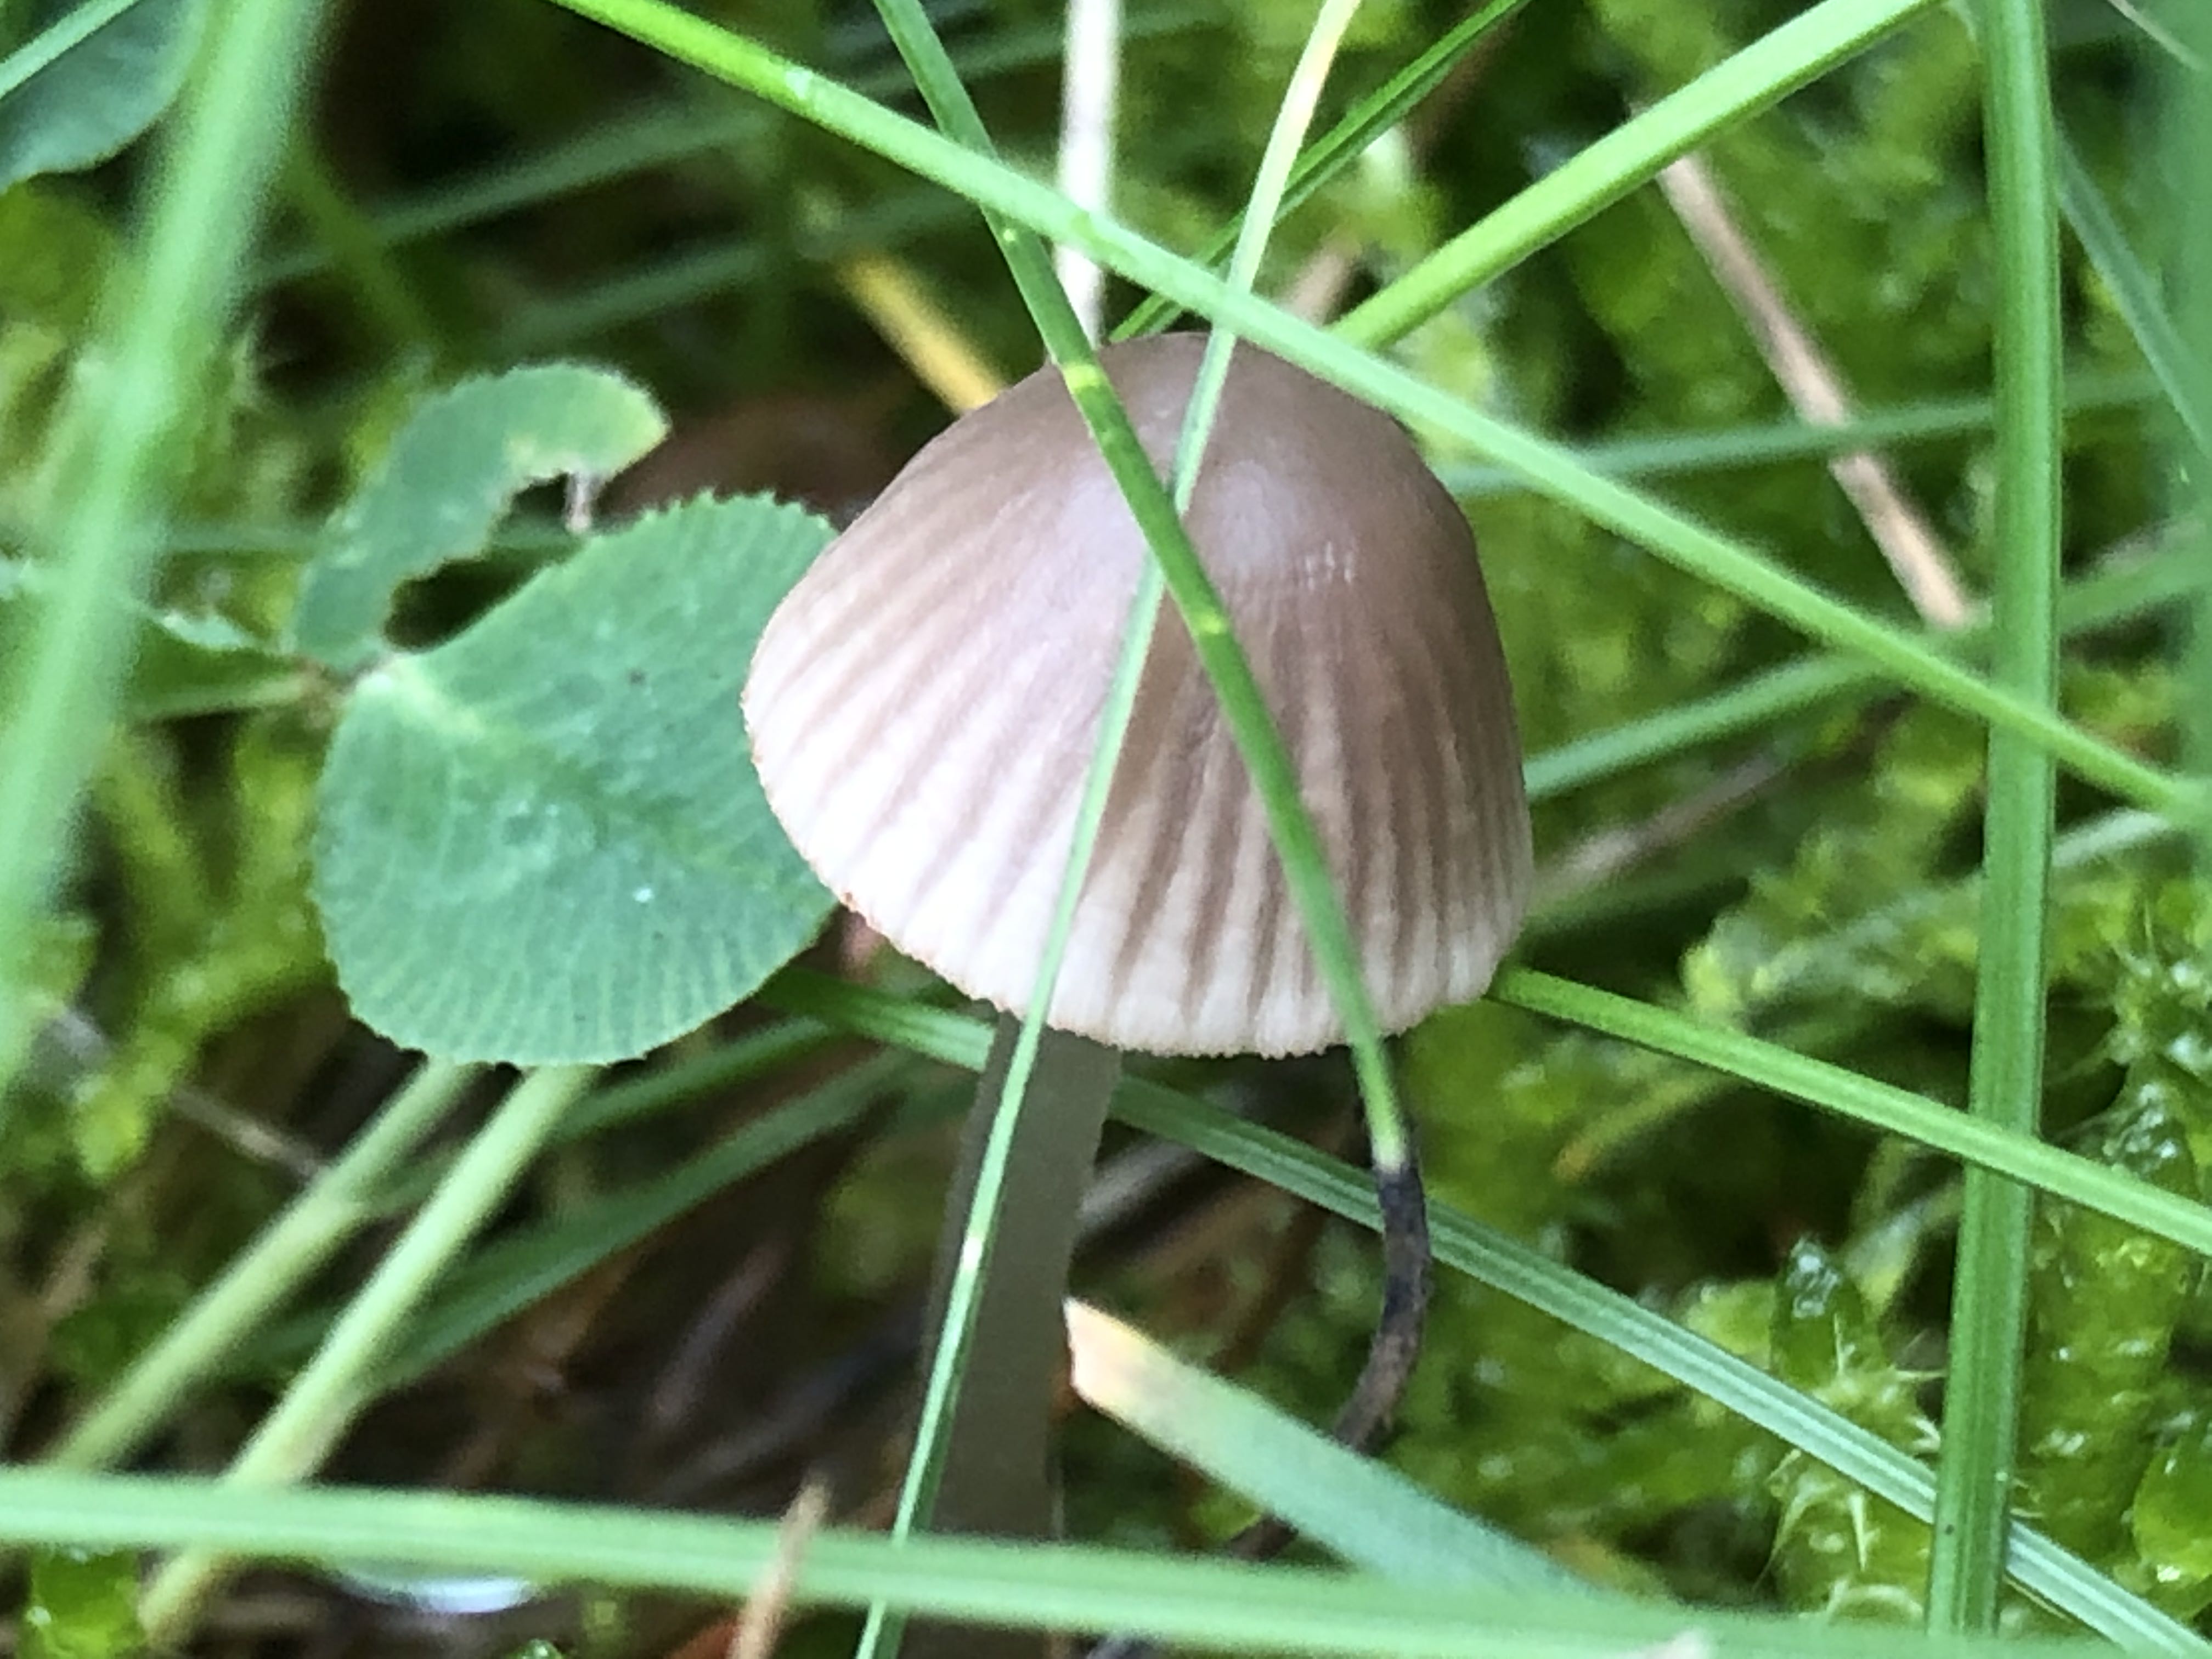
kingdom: Fungi
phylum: Basidiomycota
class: Agaricomycetes
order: Agaricales
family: Mycenaceae
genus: Mycena
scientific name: Mycena leptocephala
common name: klor-huesvamp
